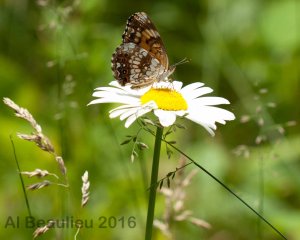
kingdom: Animalia
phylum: Arthropoda
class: Insecta
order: Lepidoptera
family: Nymphalidae
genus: Chlosyne
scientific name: Chlosyne nycteis
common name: Silvery Checkerspot
